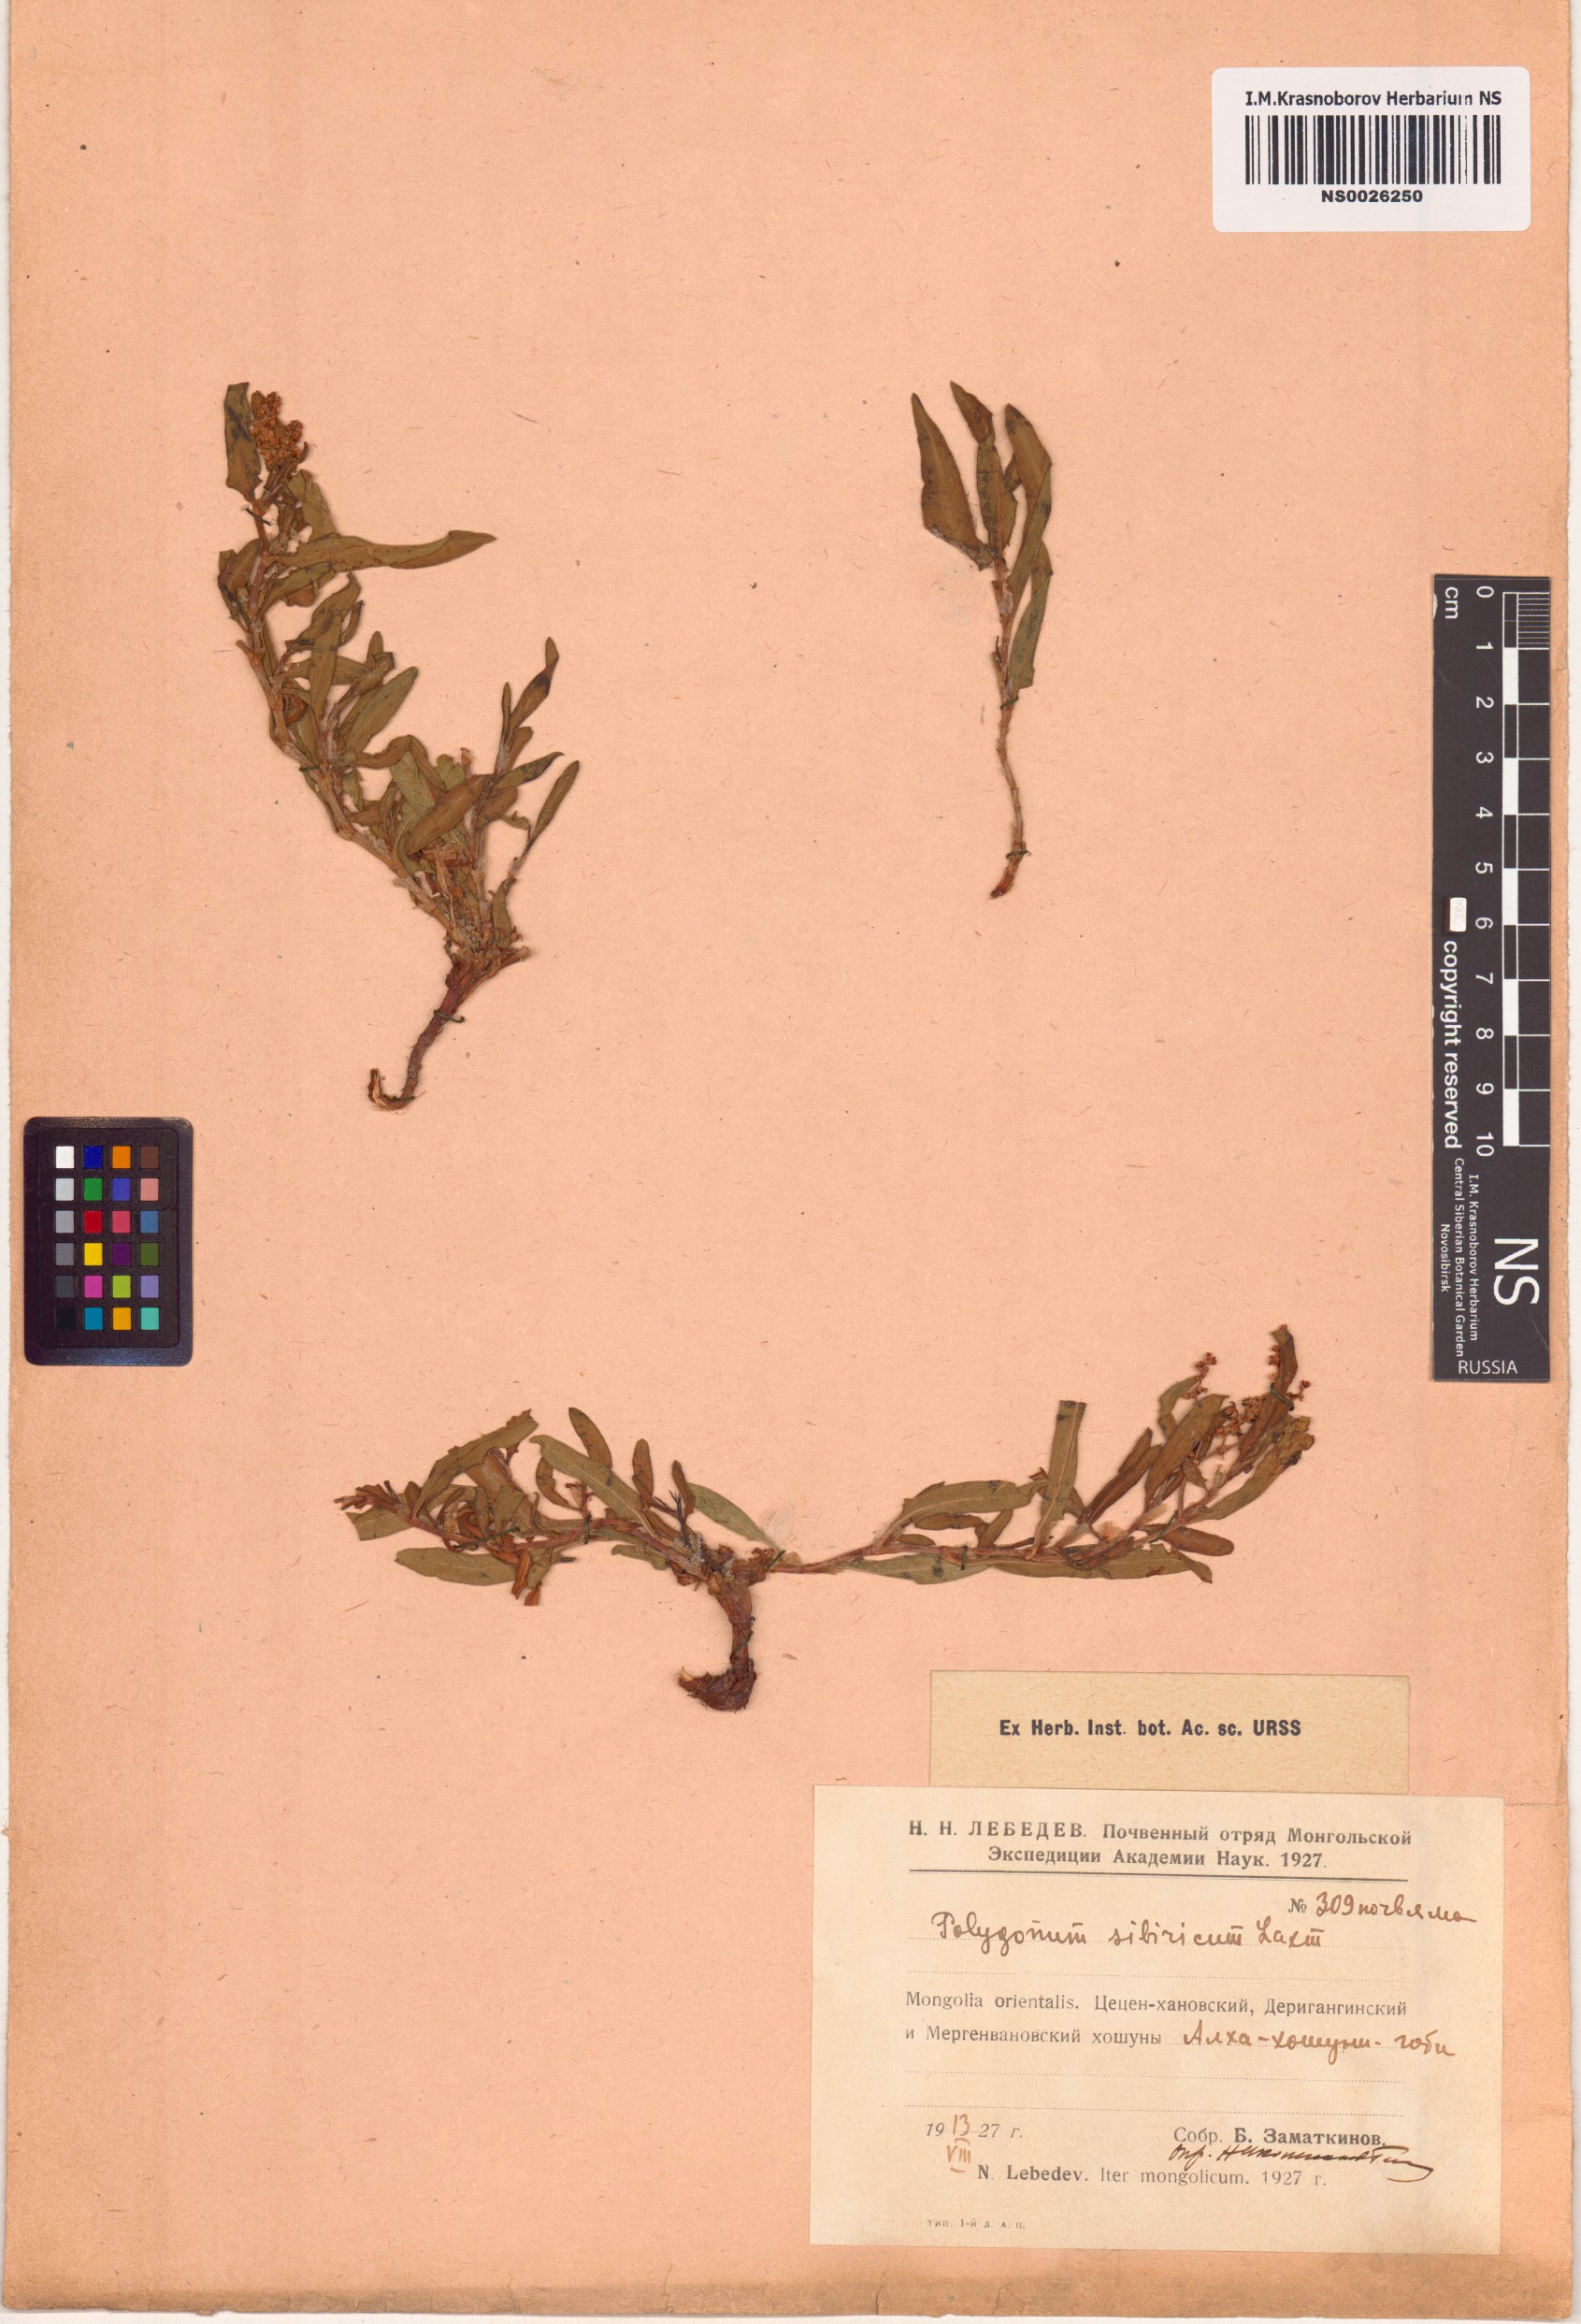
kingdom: Plantae
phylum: Tracheophyta
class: Magnoliopsida
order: Caryophyllales
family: Polygonaceae
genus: Knorringia
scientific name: Knorringia sibirica
